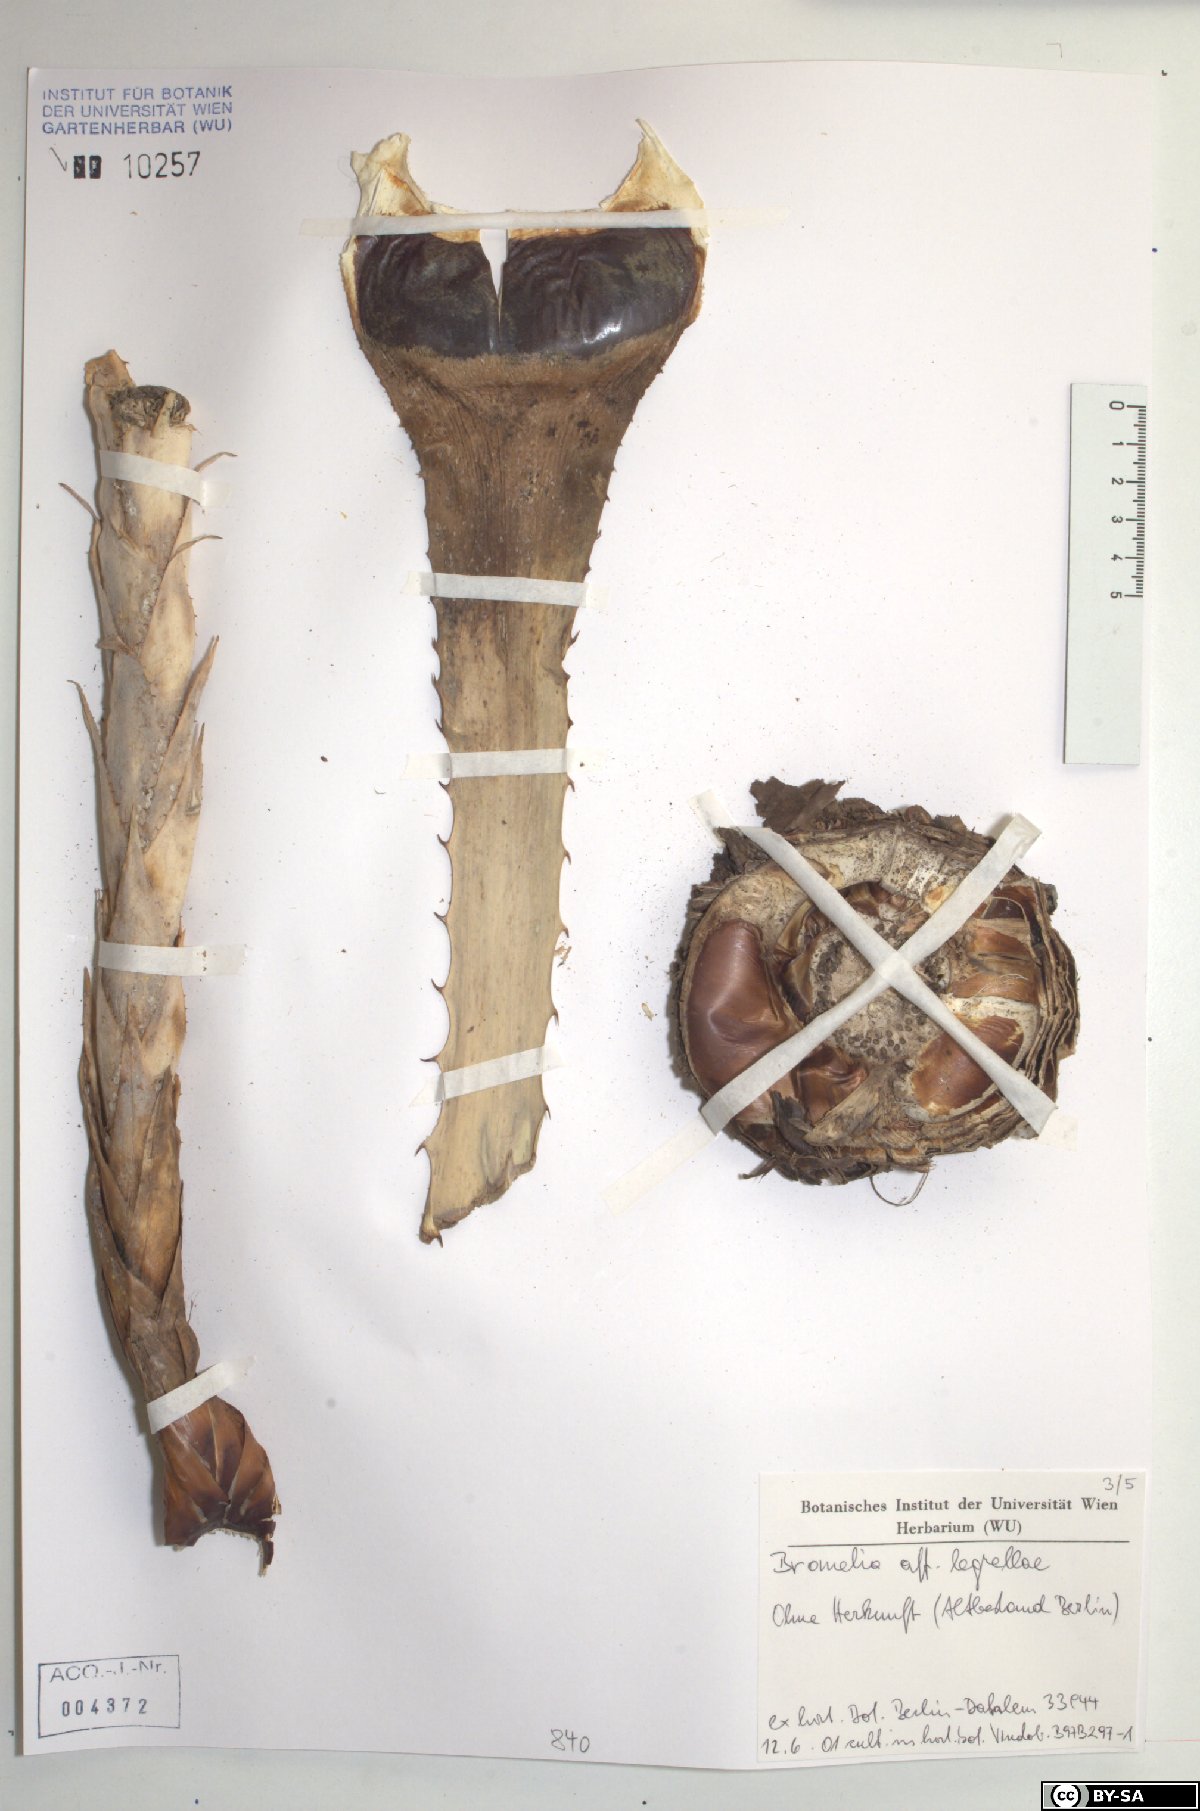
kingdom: Plantae
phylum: Tracheophyta
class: Liliopsida
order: Poales
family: Bromeliaceae
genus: Bromelia
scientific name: Bromelia legrellae
